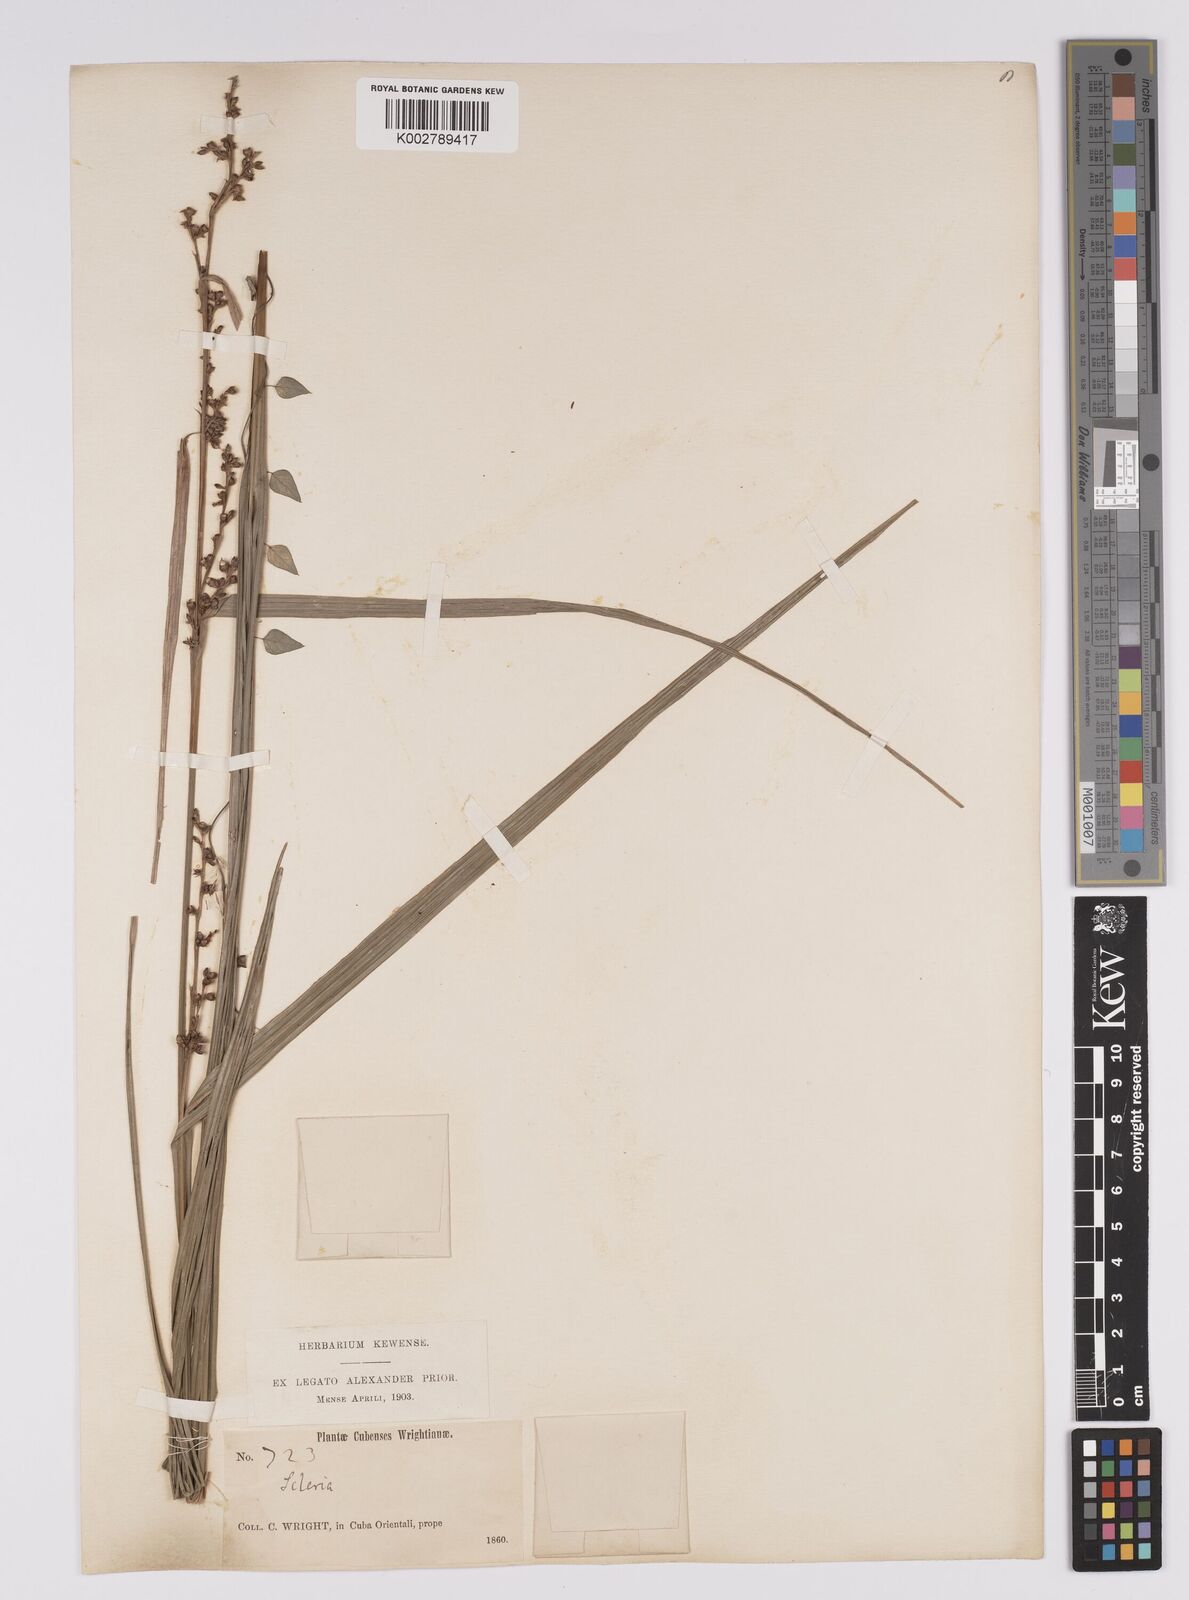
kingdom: Plantae
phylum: Tracheophyta
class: Liliopsida
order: Poales
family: Cyperaceae
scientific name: Cyperaceae
